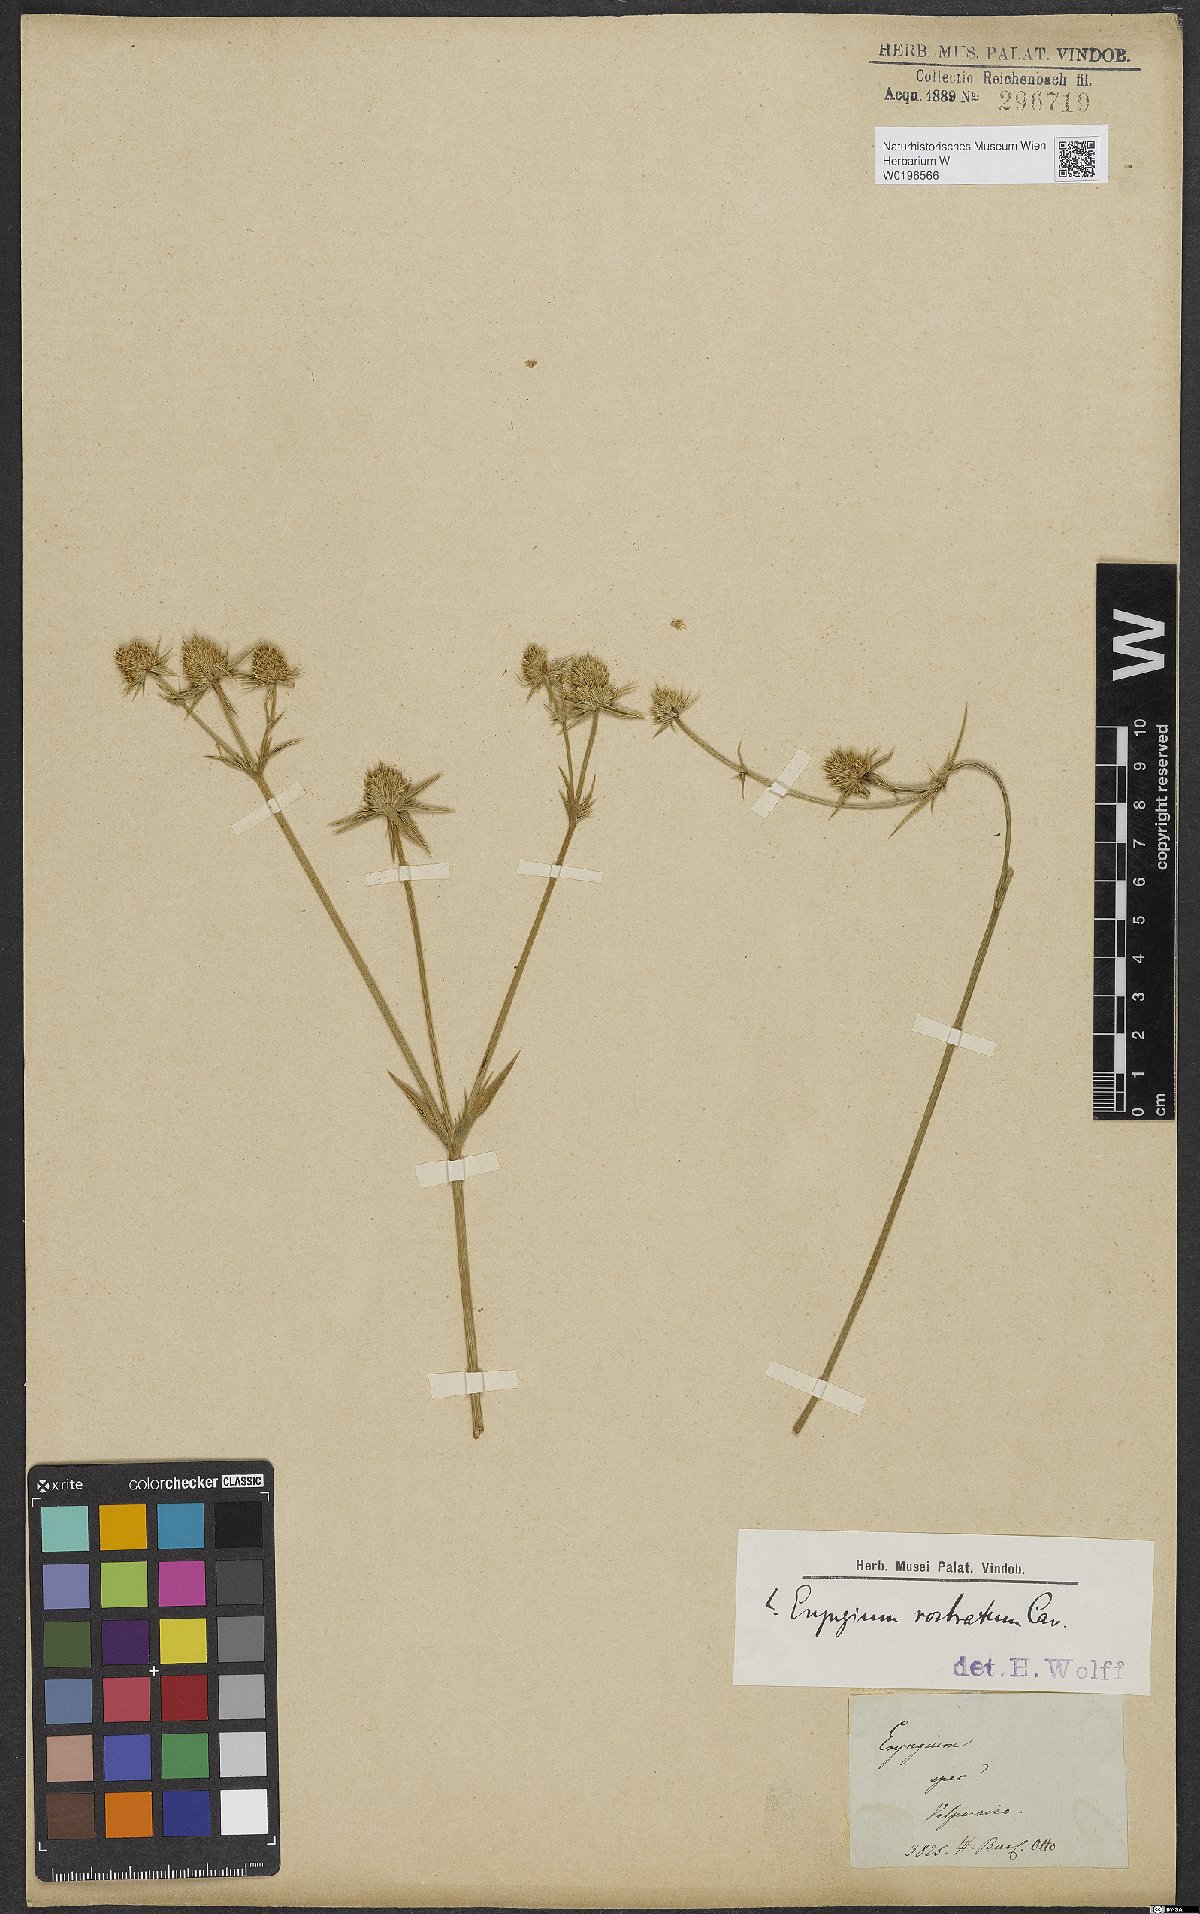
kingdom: Plantae
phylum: Tracheophyta
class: Magnoliopsida
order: Apiales
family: Apiaceae
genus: Eryngium
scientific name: Eryngium rostratum
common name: Blue eryngo
